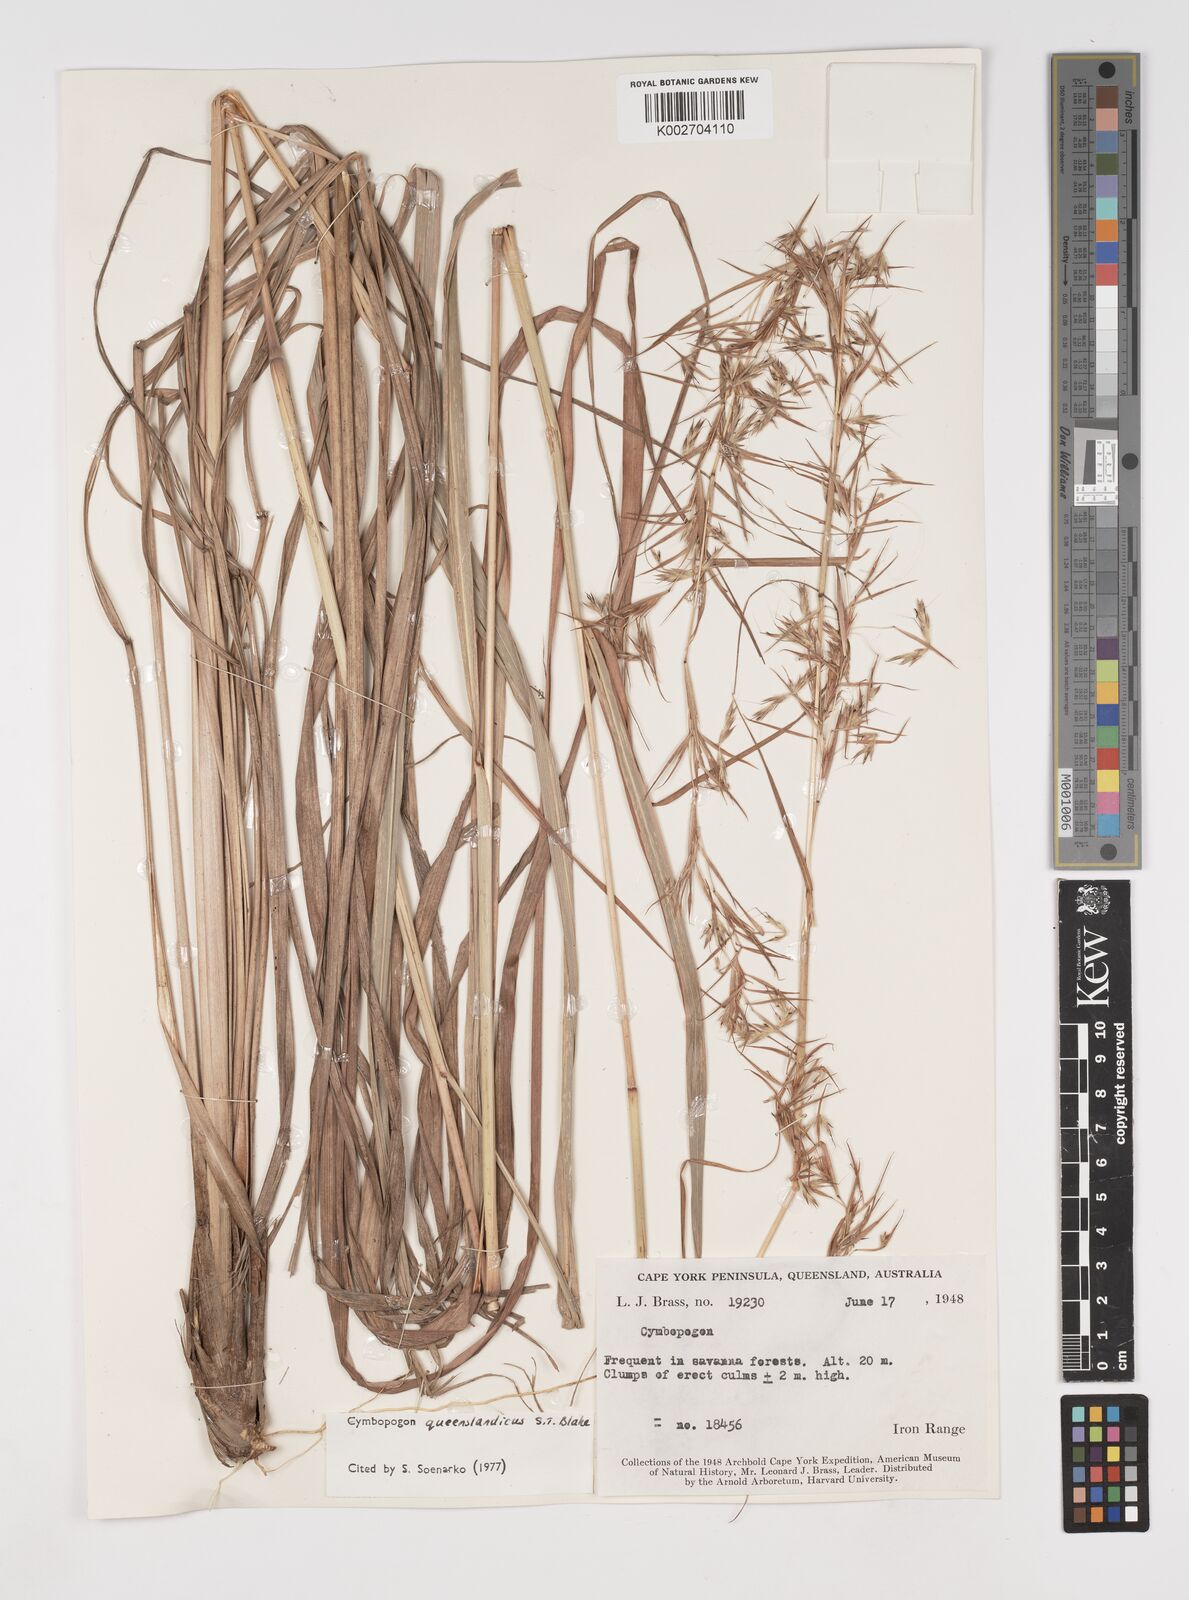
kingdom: Plantae
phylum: Tracheophyta
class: Liliopsida
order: Poales
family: Poaceae
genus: Cymbopogon
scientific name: Cymbopogon queenslandicus
